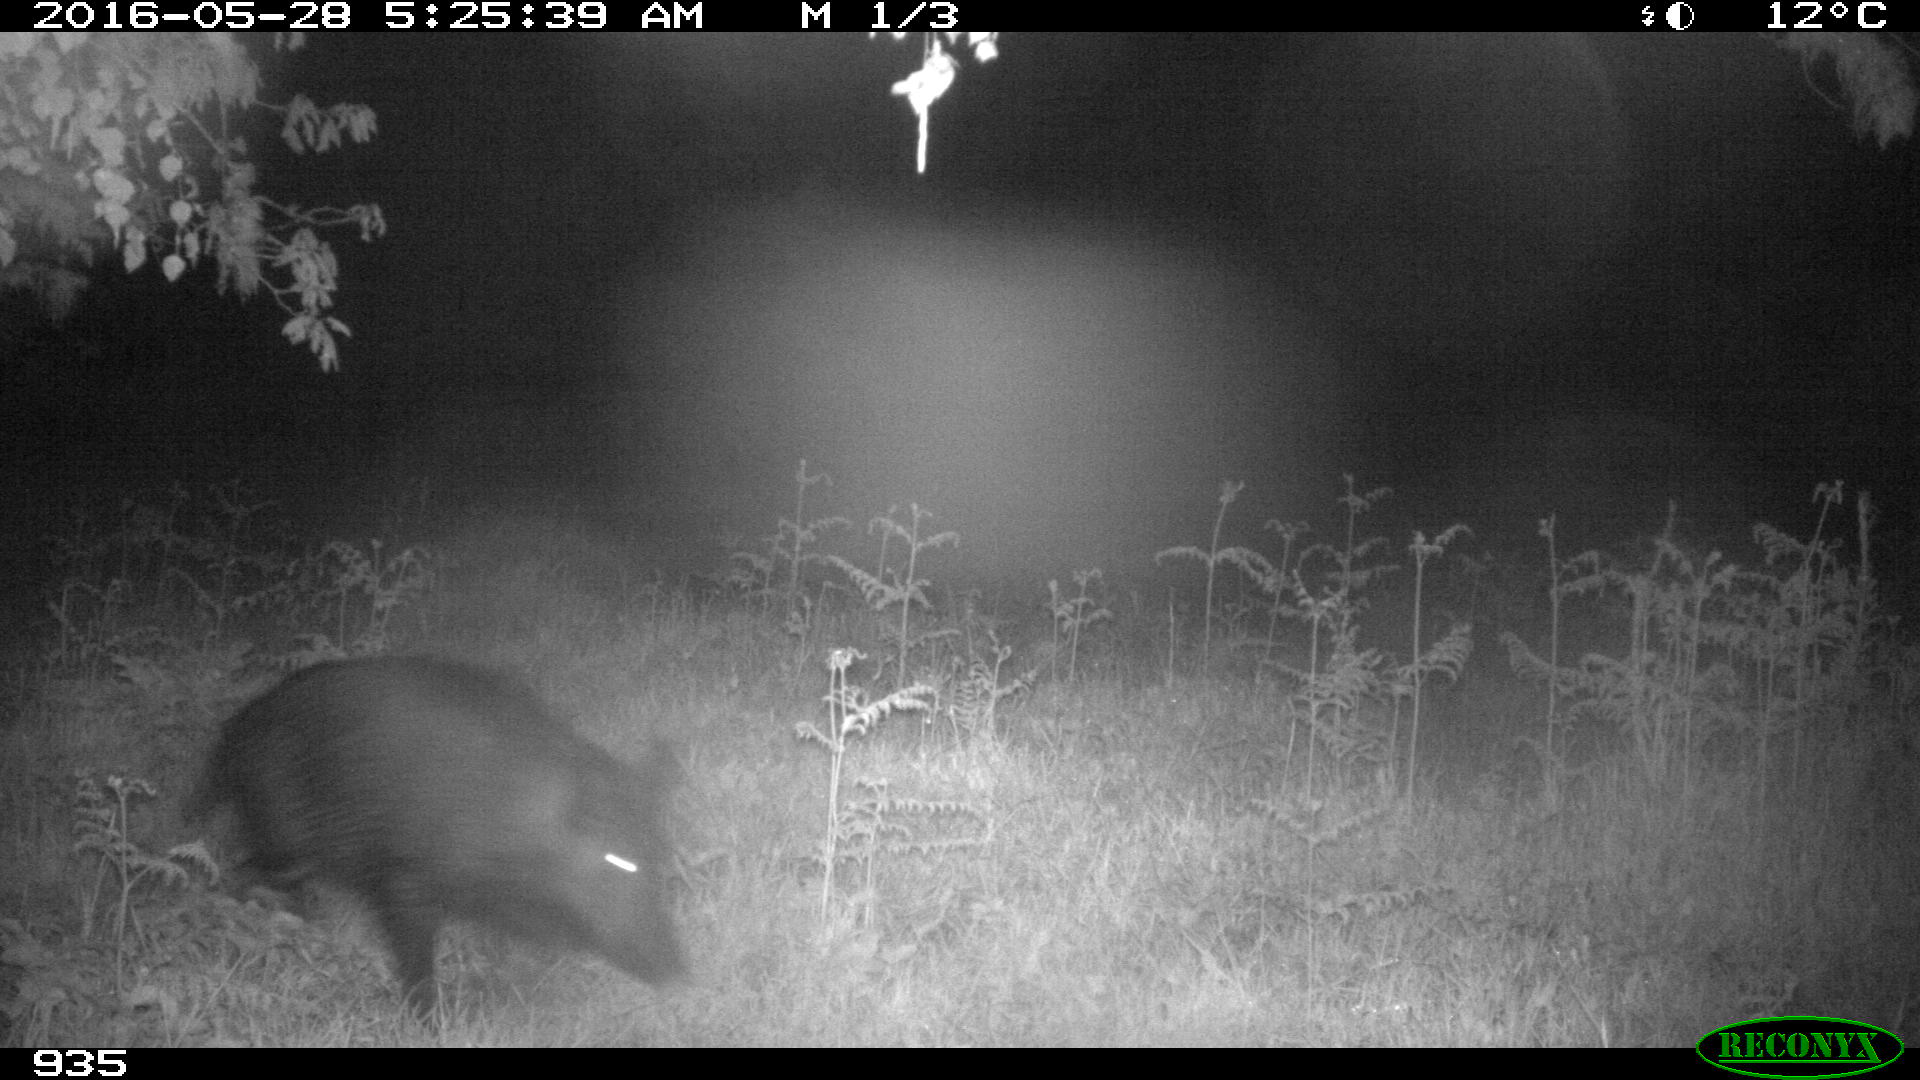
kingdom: Animalia
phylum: Chordata
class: Mammalia
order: Artiodactyla
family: Suidae
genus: Sus
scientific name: Sus scrofa
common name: Wild boar
